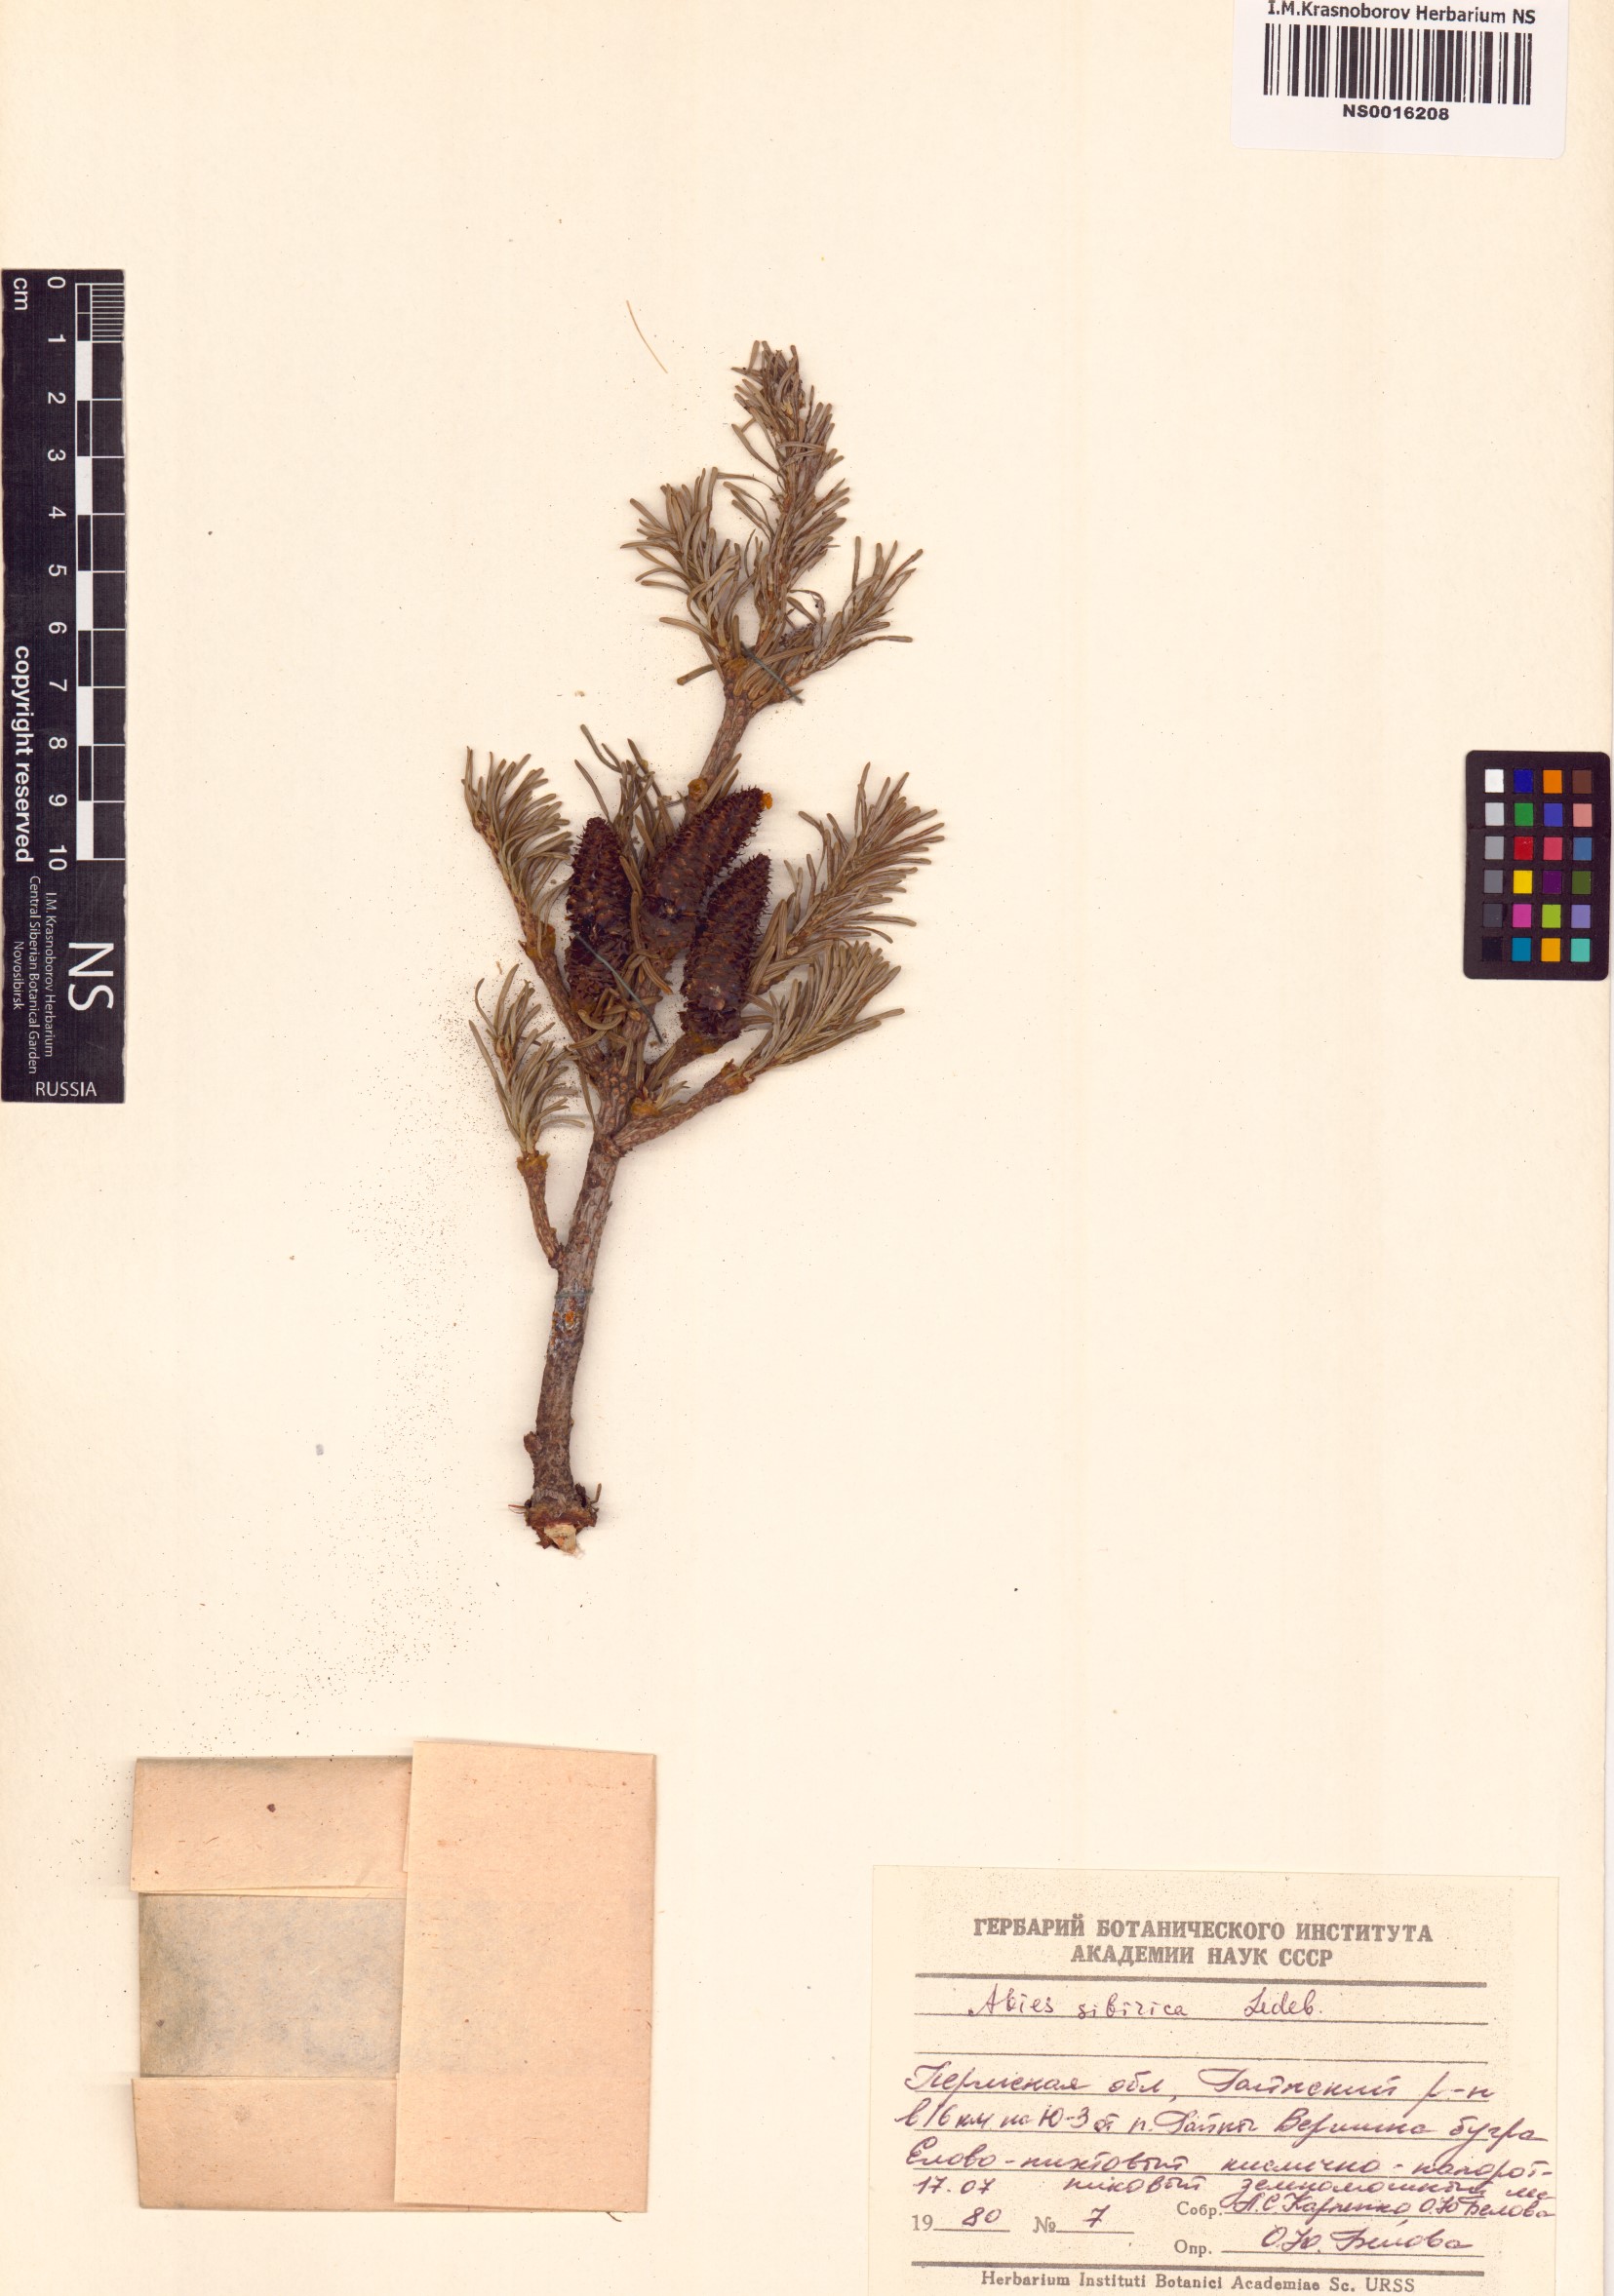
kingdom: Plantae
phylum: Tracheophyta
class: Pinopsida
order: Pinales
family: Pinaceae
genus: Abies
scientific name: Abies sibirica
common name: Siberian fir
